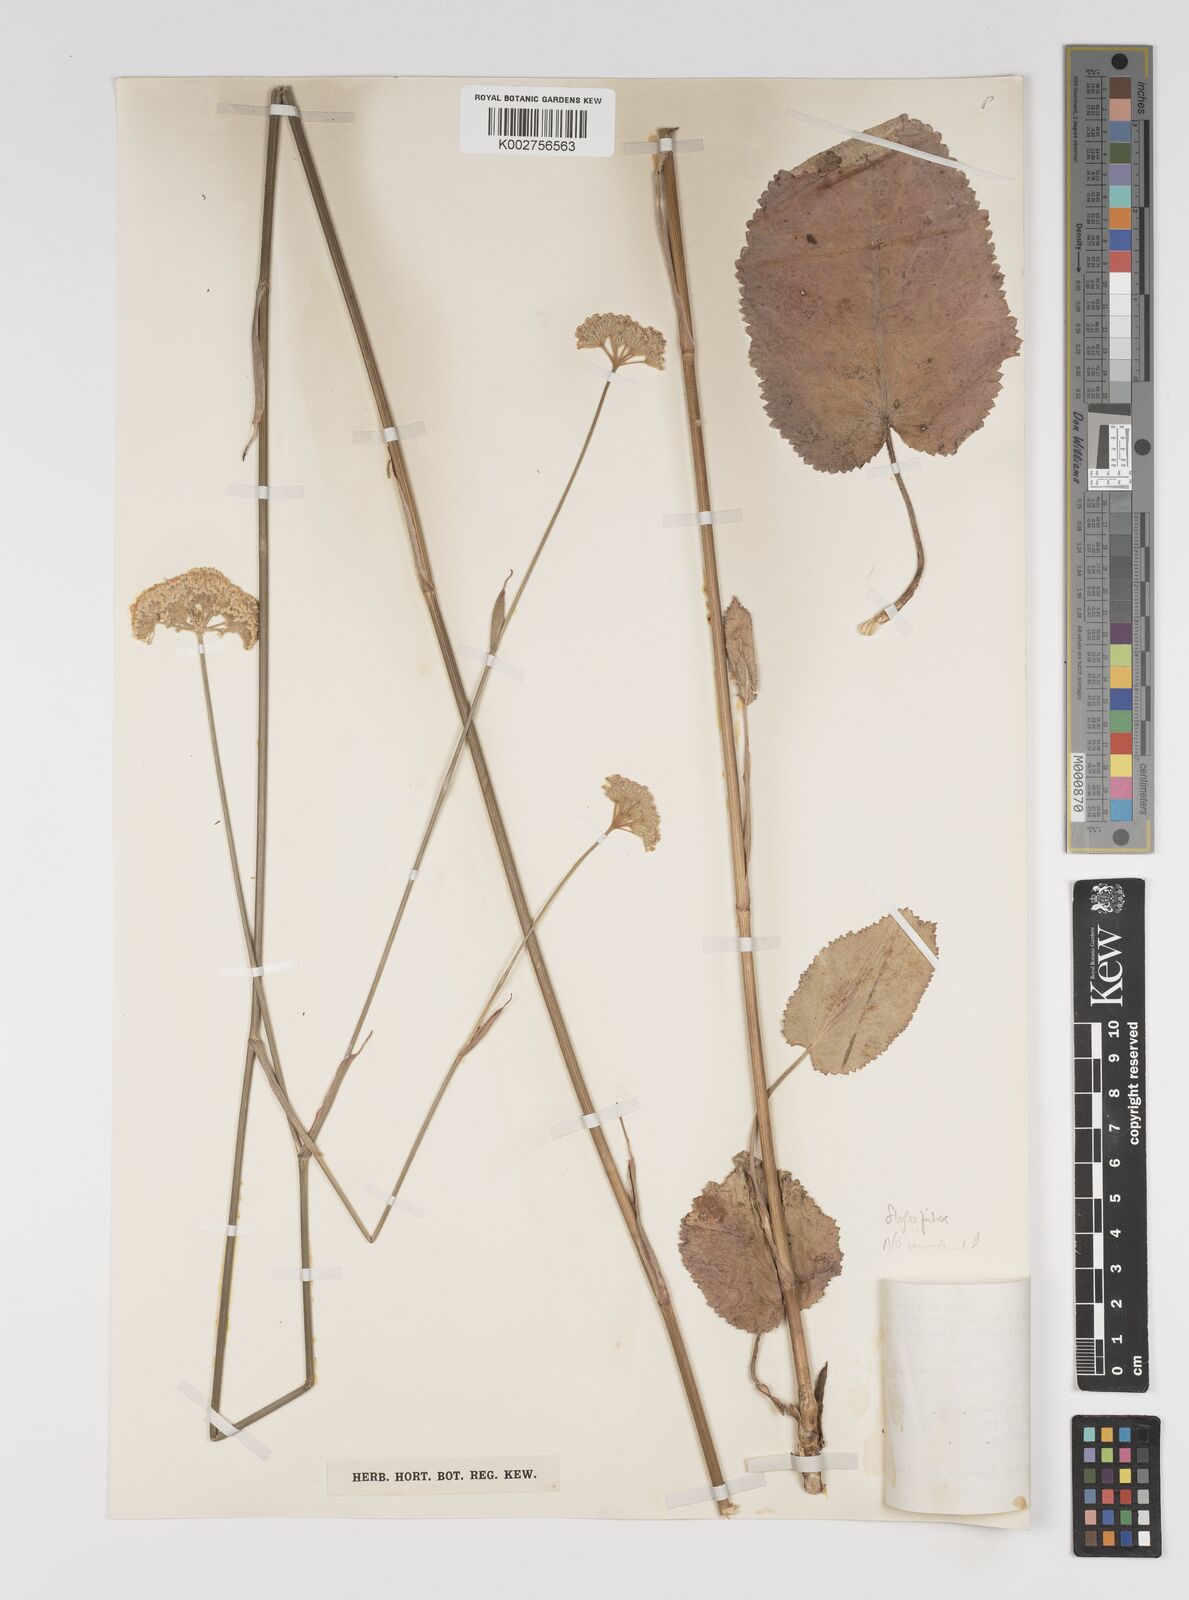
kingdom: Plantae
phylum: Tracheophyta
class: Magnoliopsida
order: Apiales
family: Apiaceae
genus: Pimpinella
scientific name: Pimpinella kingdon-wardii
